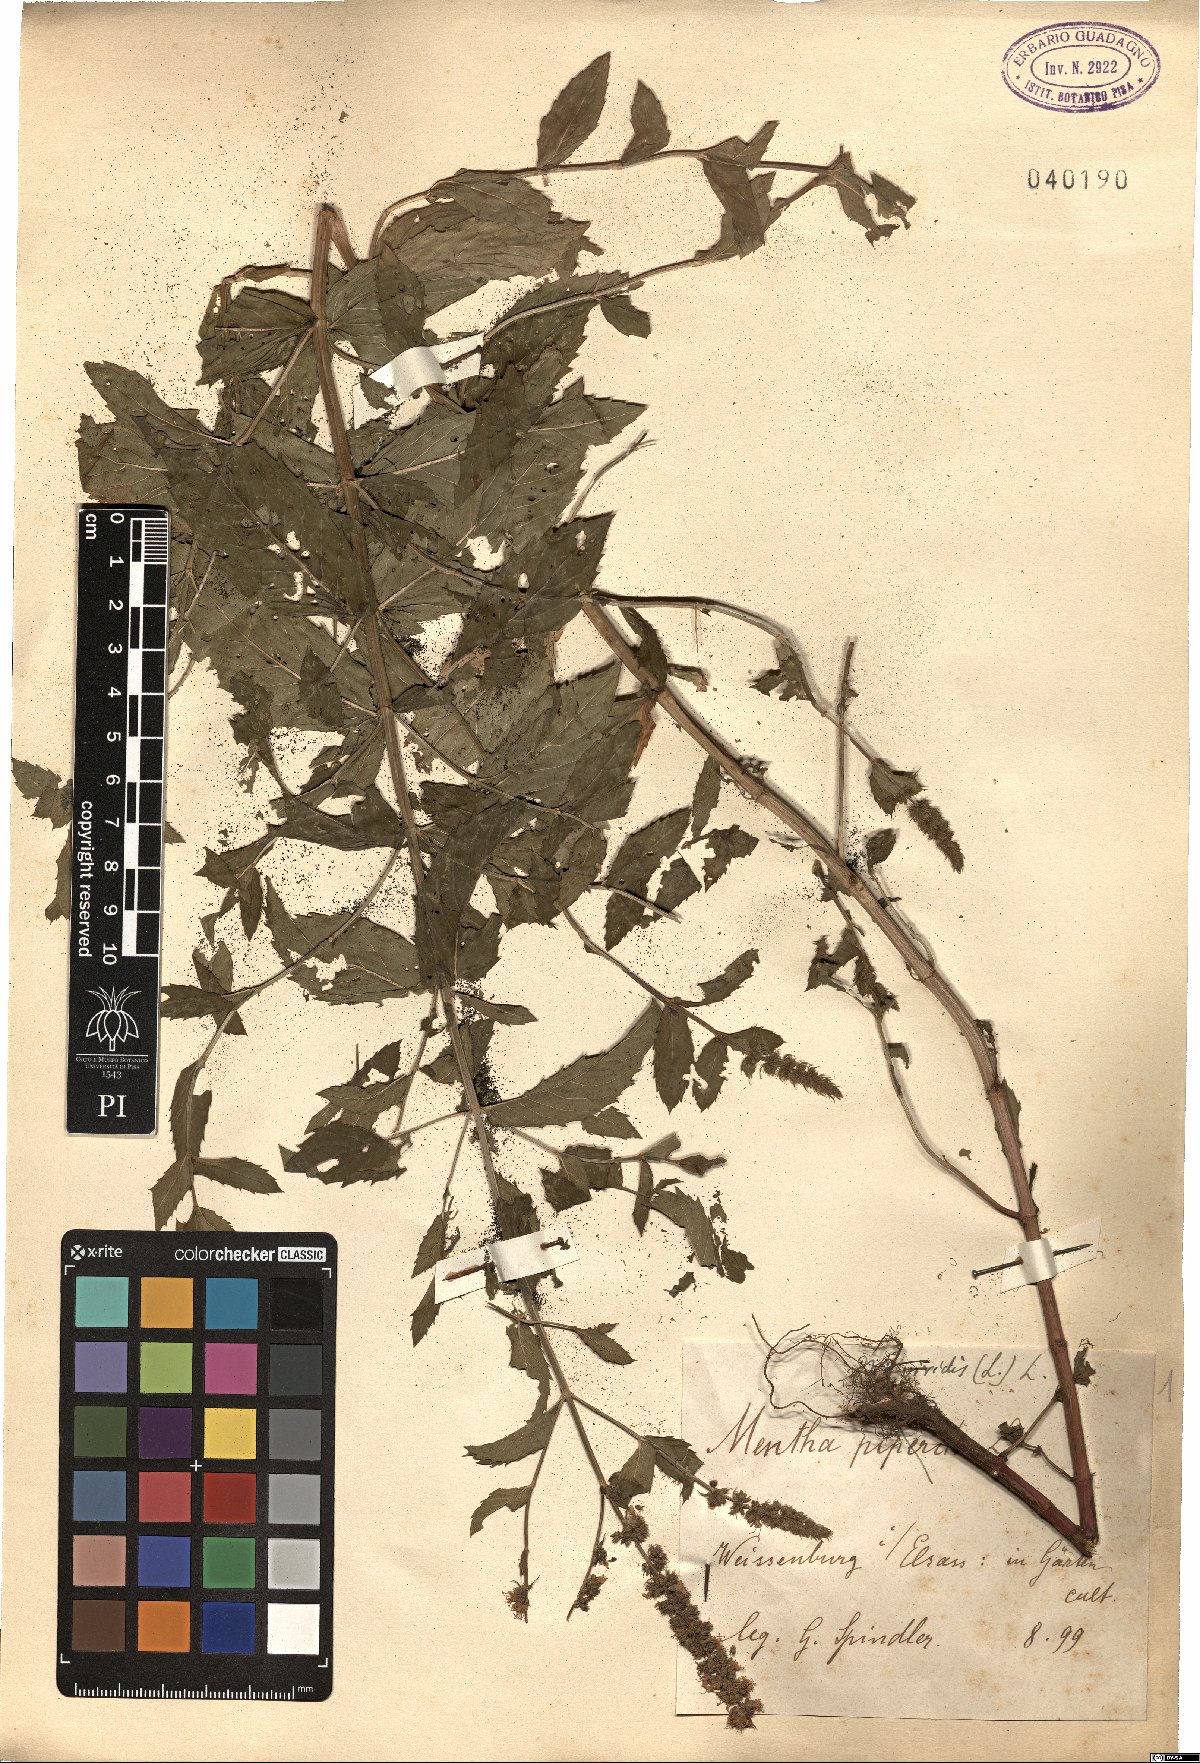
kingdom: Plantae
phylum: Tracheophyta
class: Magnoliopsida
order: Lamiales
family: Lamiaceae
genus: Mentha
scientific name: Mentha spicata
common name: Spearmint
